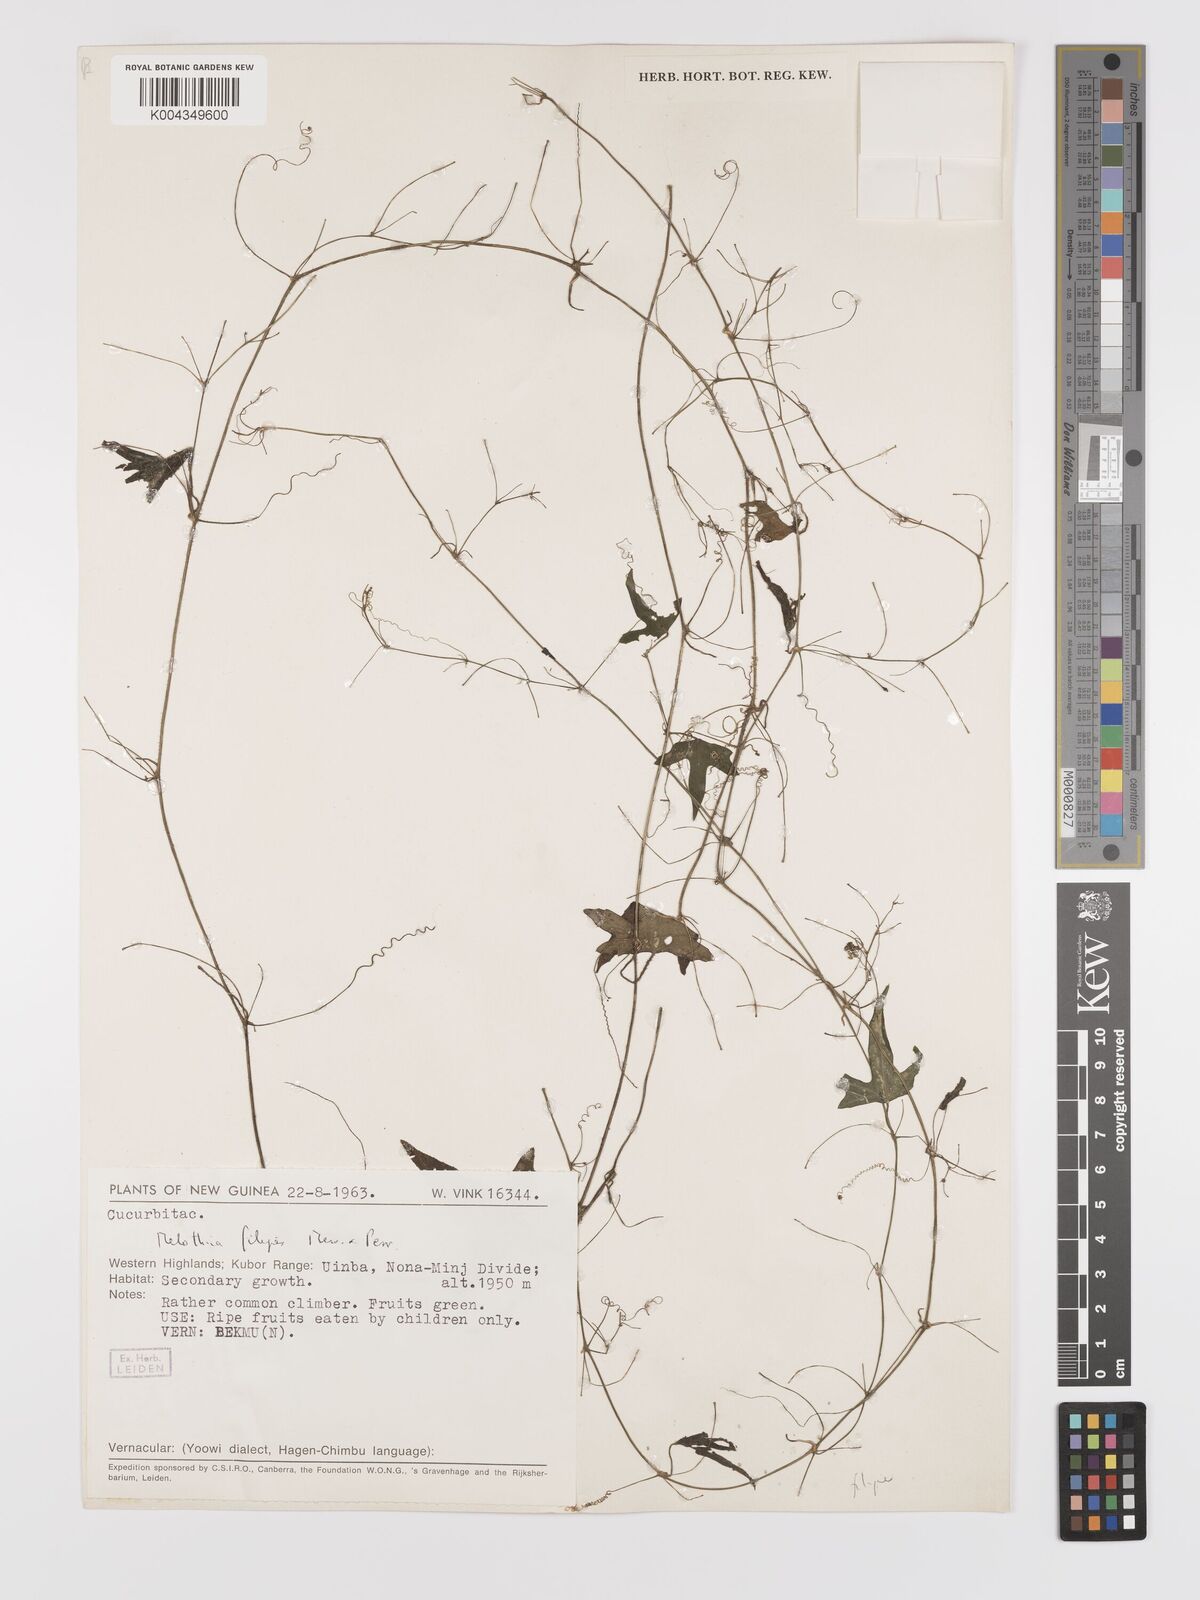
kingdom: Plantae
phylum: Tracheophyta
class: Magnoliopsida
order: Cucurbitales
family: Cucurbitaceae
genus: Zehneria
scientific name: Zehneria filipes
